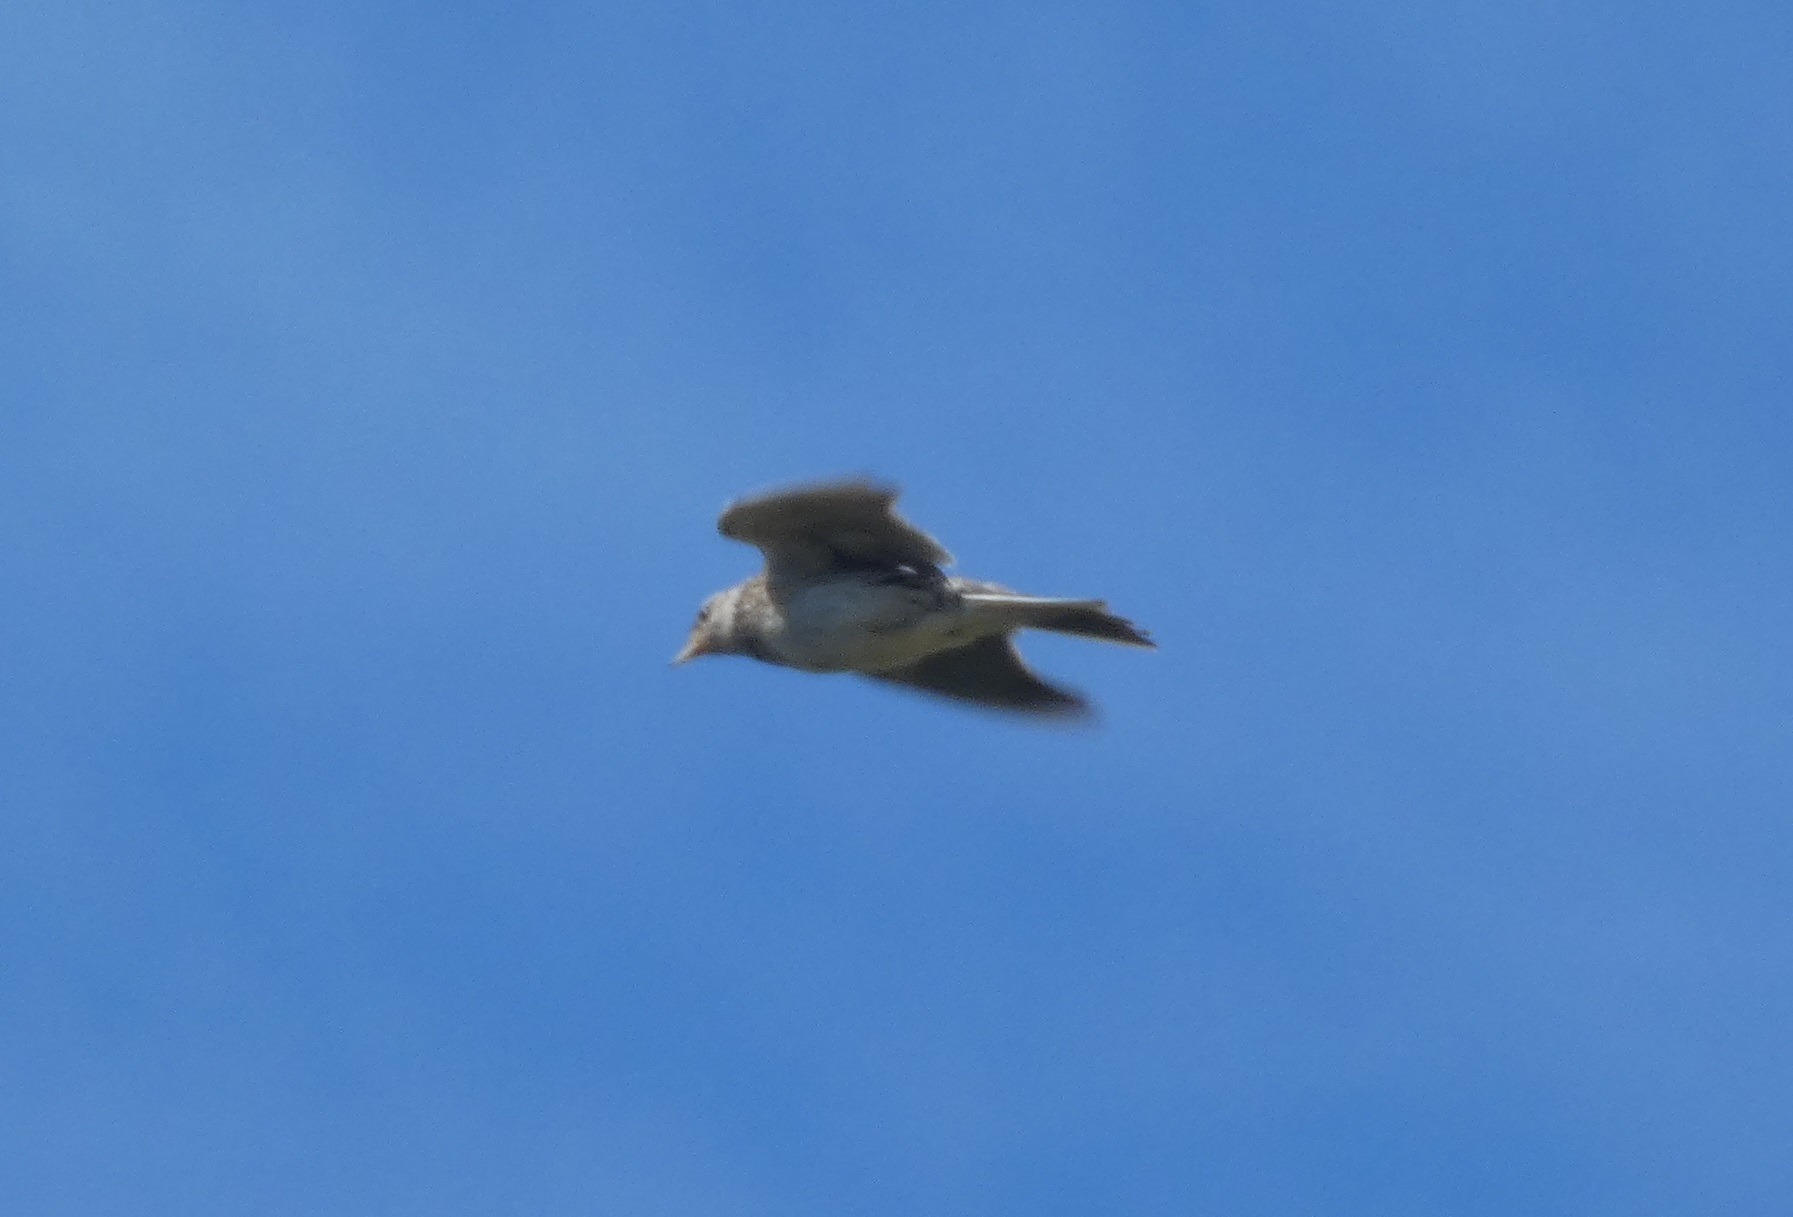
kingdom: Animalia
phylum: Chordata
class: Aves
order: Passeriformes
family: Alaudidae
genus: Alauda
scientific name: Alauda arvensis
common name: Sanglærke
